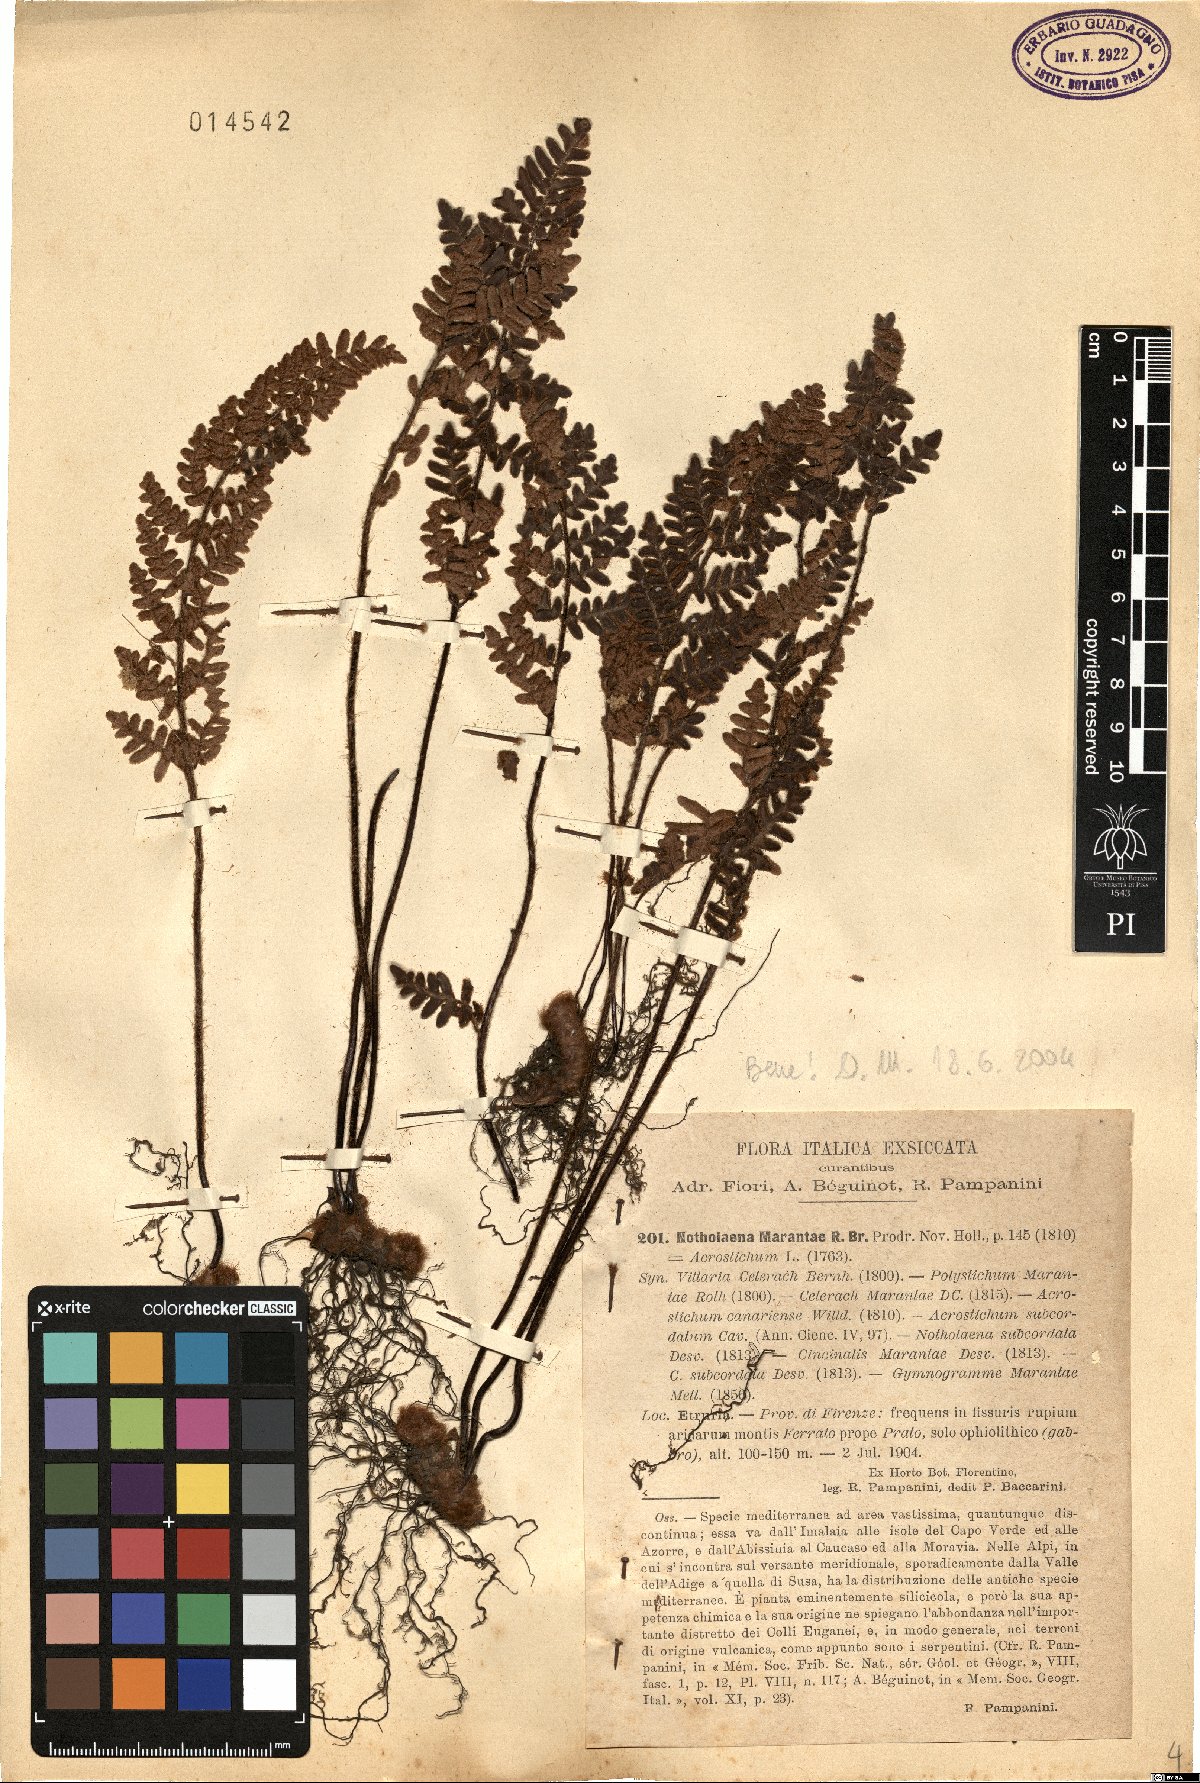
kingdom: Plantae
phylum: Tracheophyta
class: Polypodiopsida
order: Polypodiales
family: Pteridaceae
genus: Paragymnopteris
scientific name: Paragymnopteris marantae
